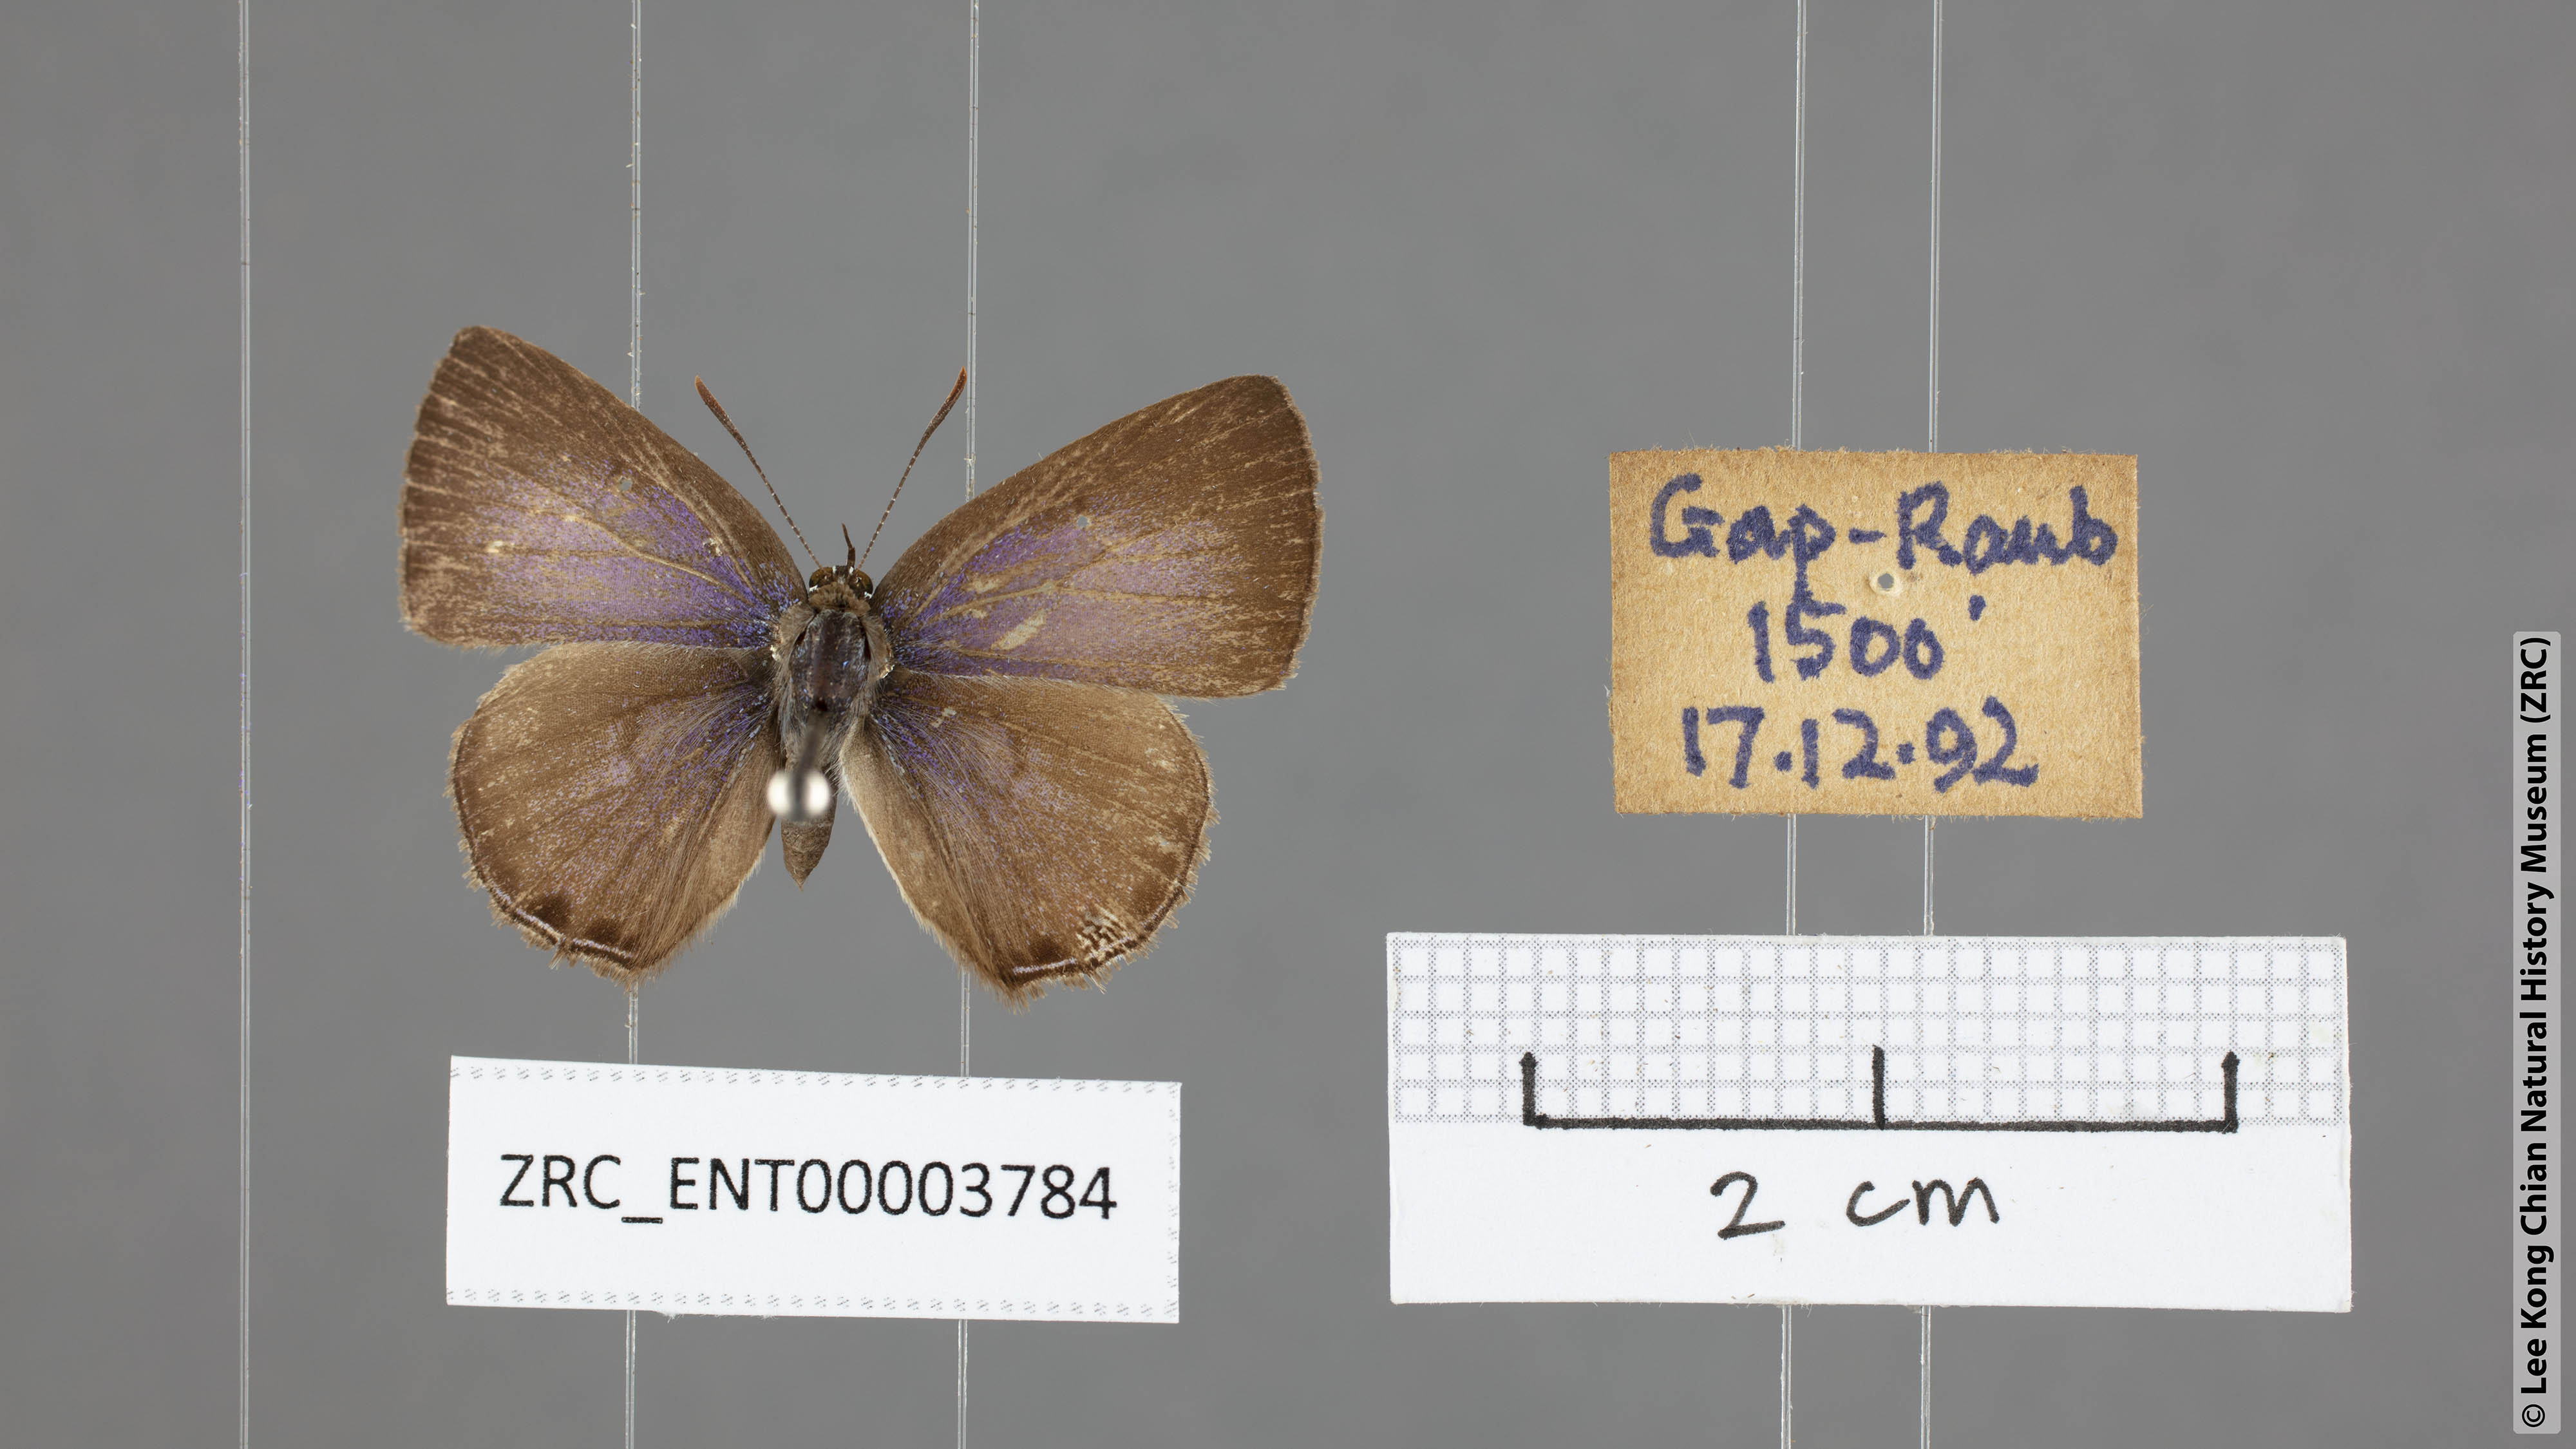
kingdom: Animalia
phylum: Arthropoda
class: Insecta
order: Lepidoptera
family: Lycaenidae
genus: Anthene
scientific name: Anthene emolus
